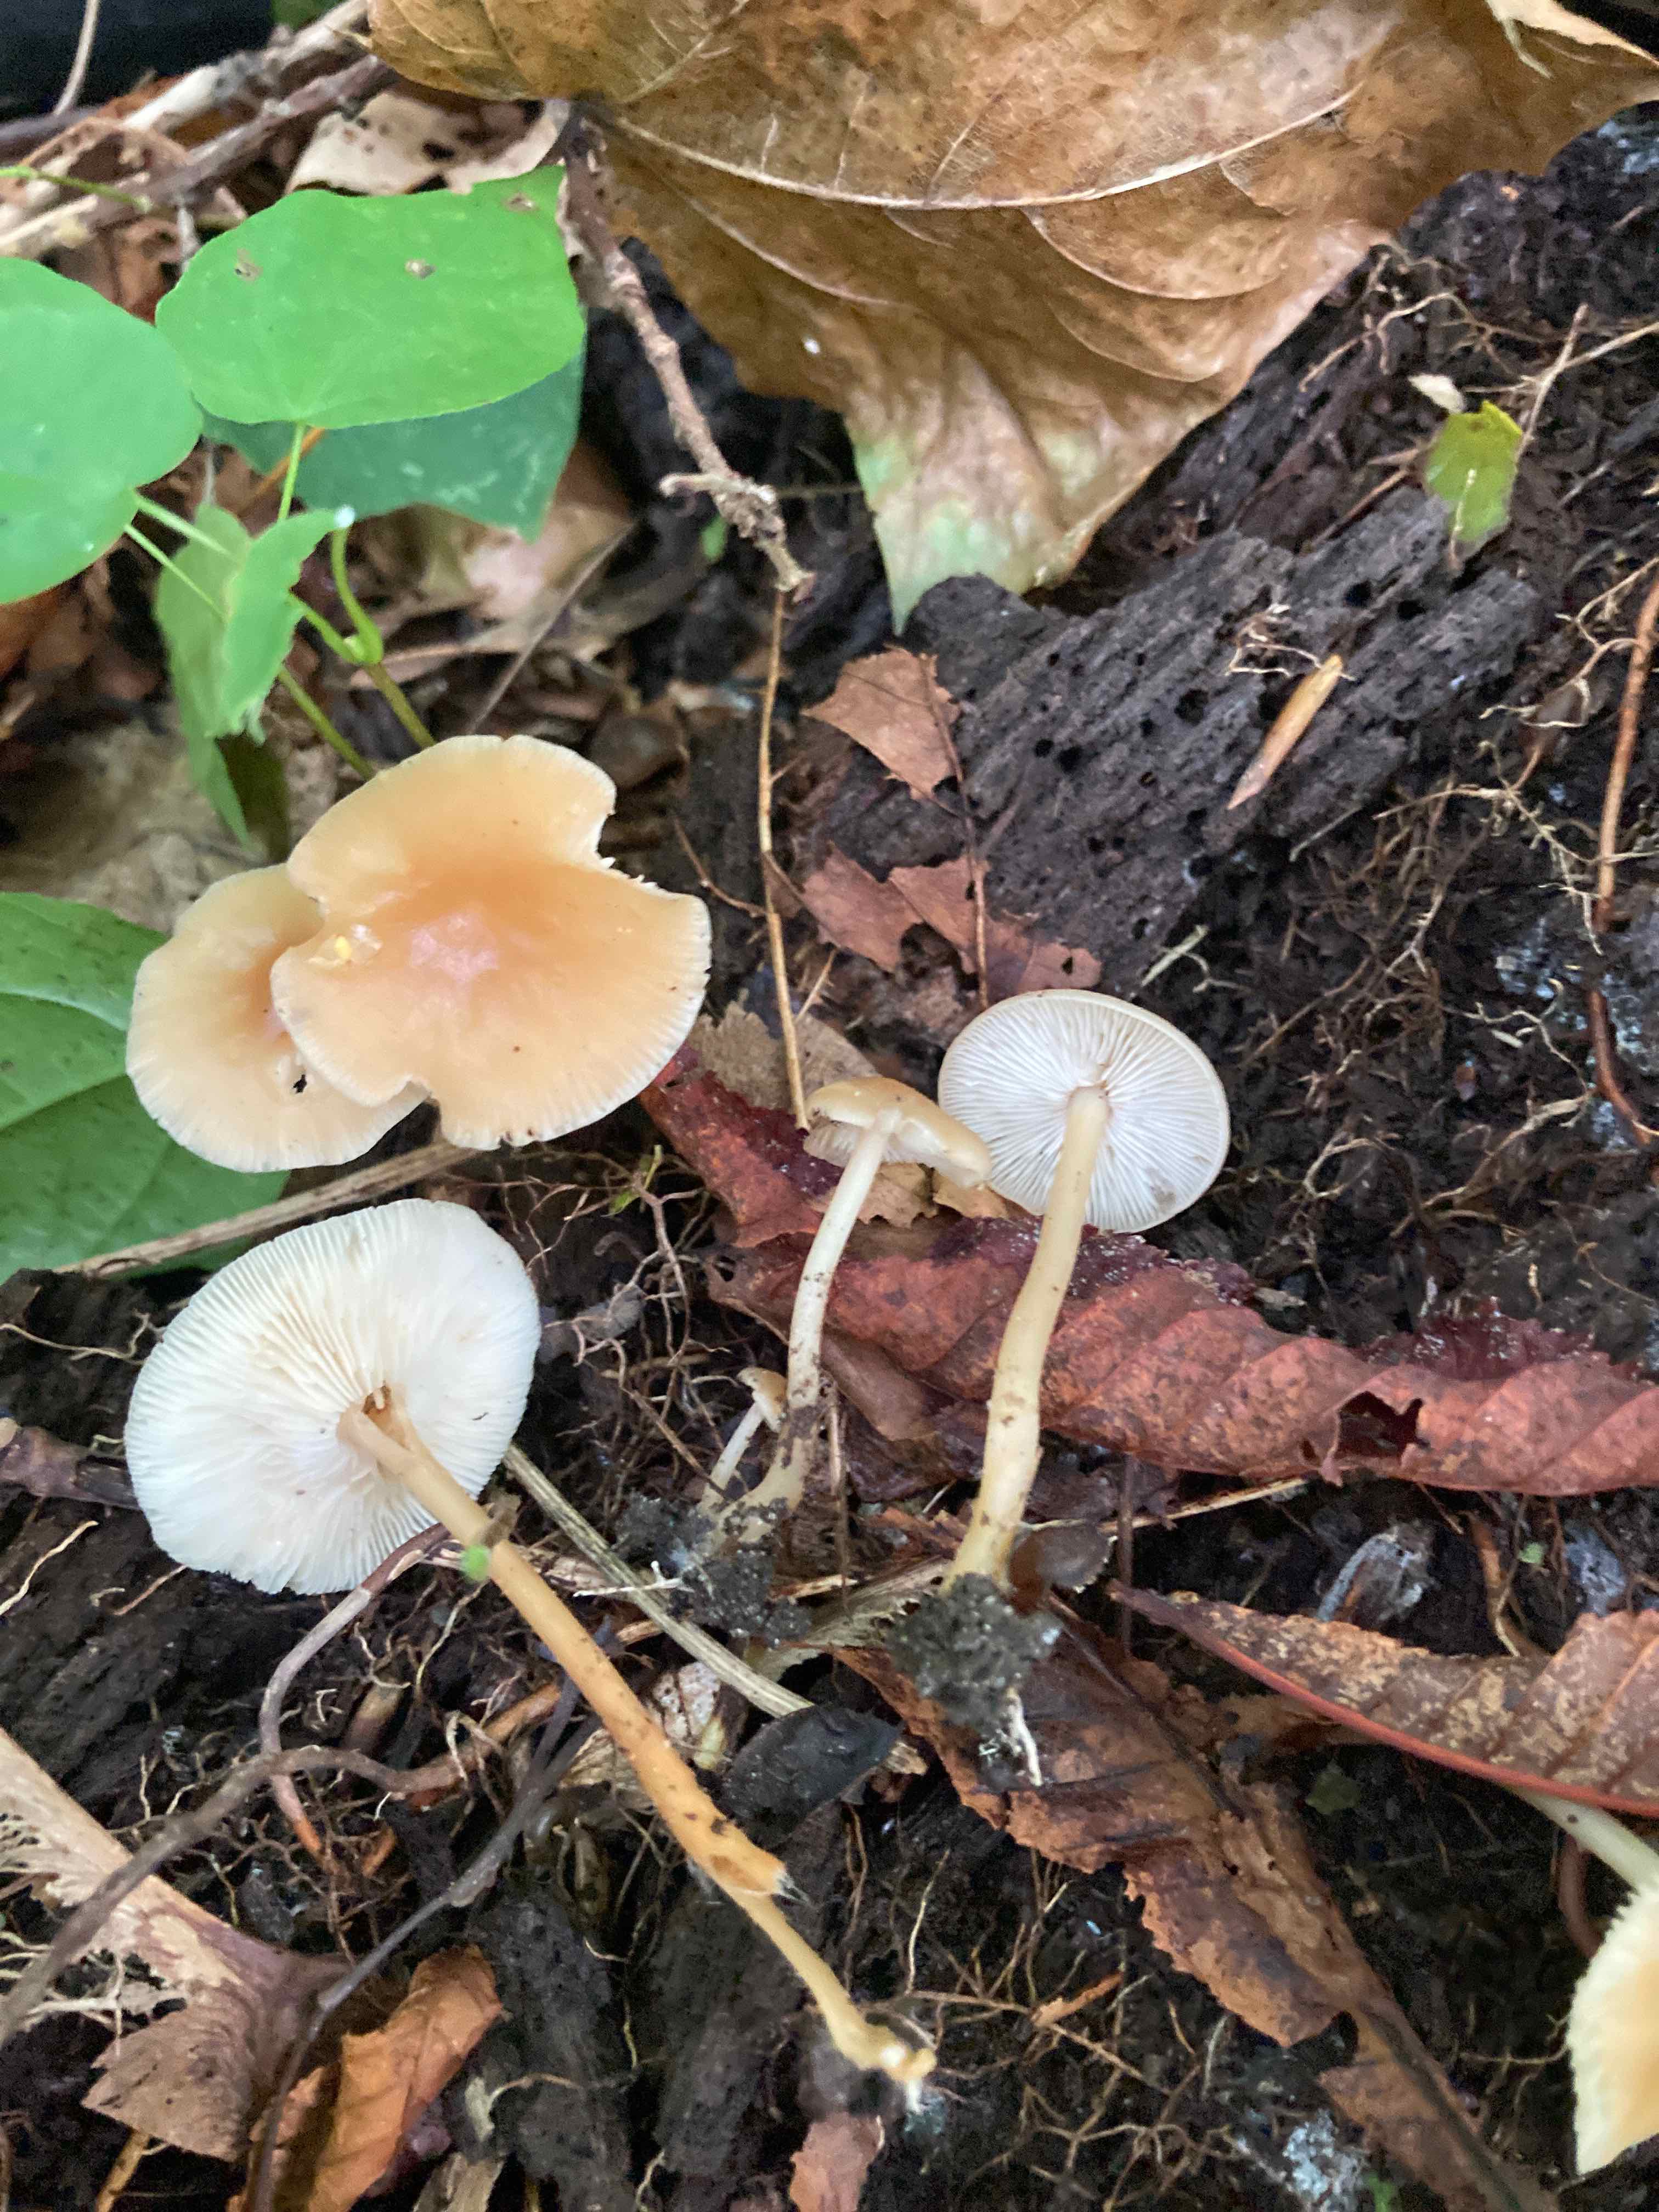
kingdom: Fungi
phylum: Basidiomycota
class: Agaricomycetes
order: Agaricales
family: Omphalotaceae
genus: Gymnopus
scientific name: Gymnopus dryophilus
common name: løv-fladhat
